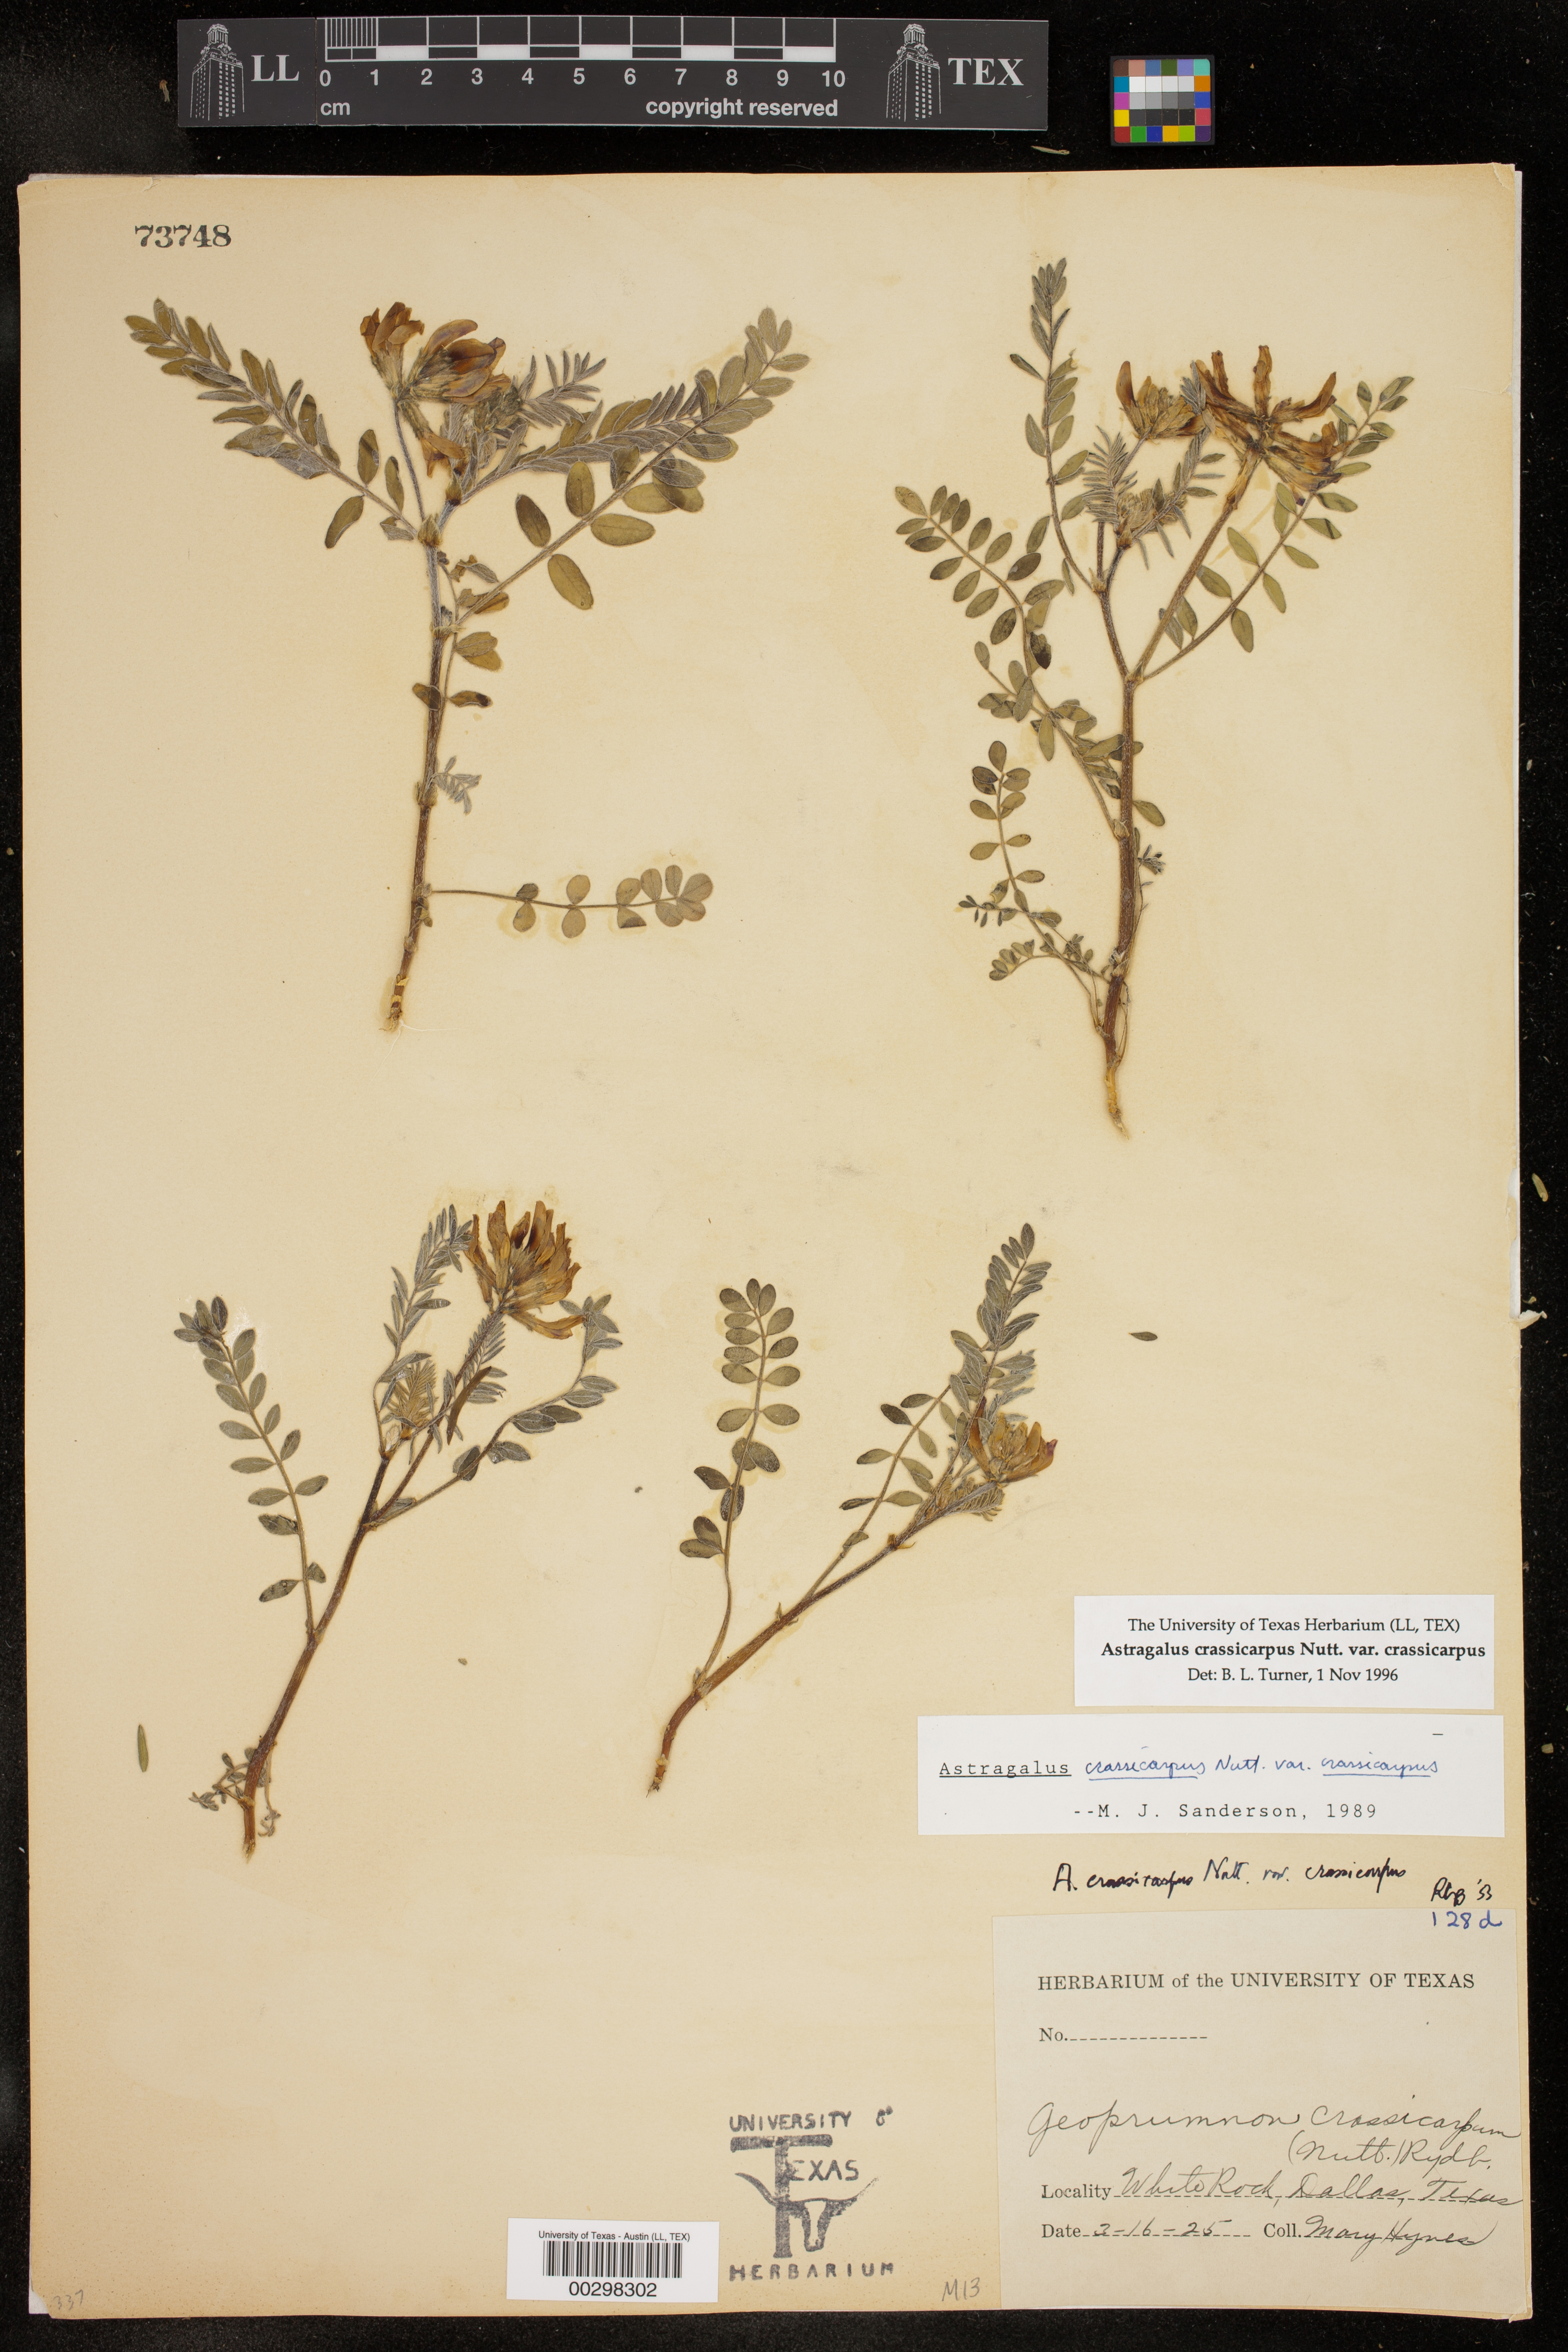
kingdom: Plantae
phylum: Tracheophyta
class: Magnoliopsida
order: Fabales
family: Fabaceae
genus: Astragalus
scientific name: Astragalus crassicarpus
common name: Ground-plum milk-vetch
